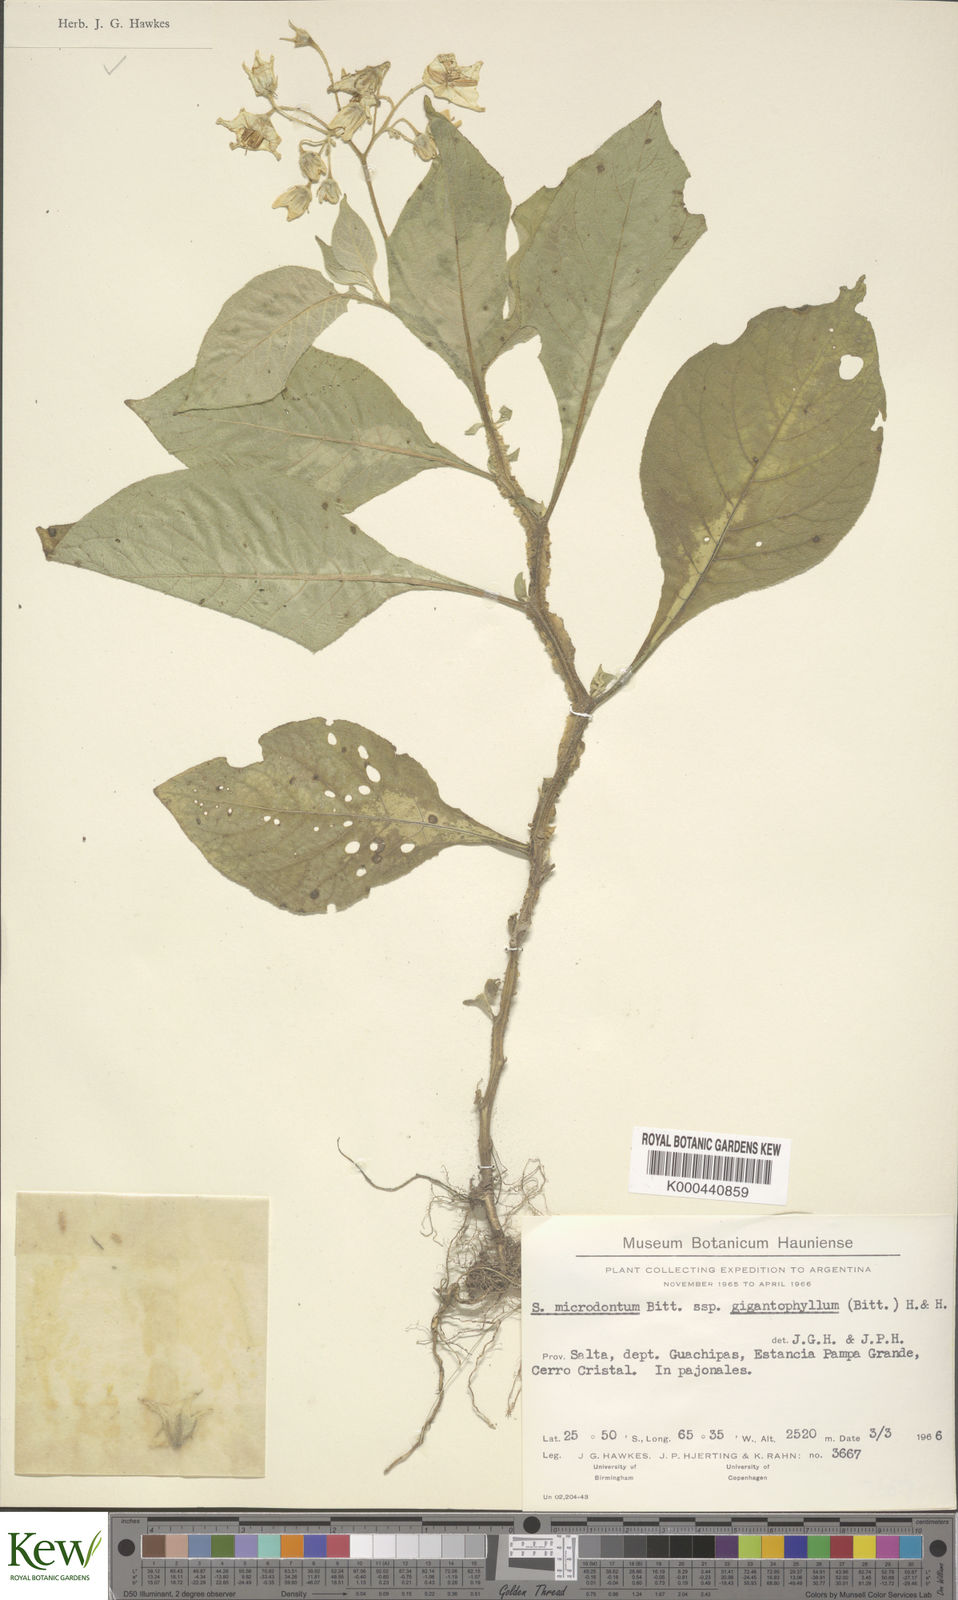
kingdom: Plantae
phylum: Tracheophyta
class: Magnoliopsida
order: Solanales
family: Solanaceae
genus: Solanum
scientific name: Solanum microdontum
